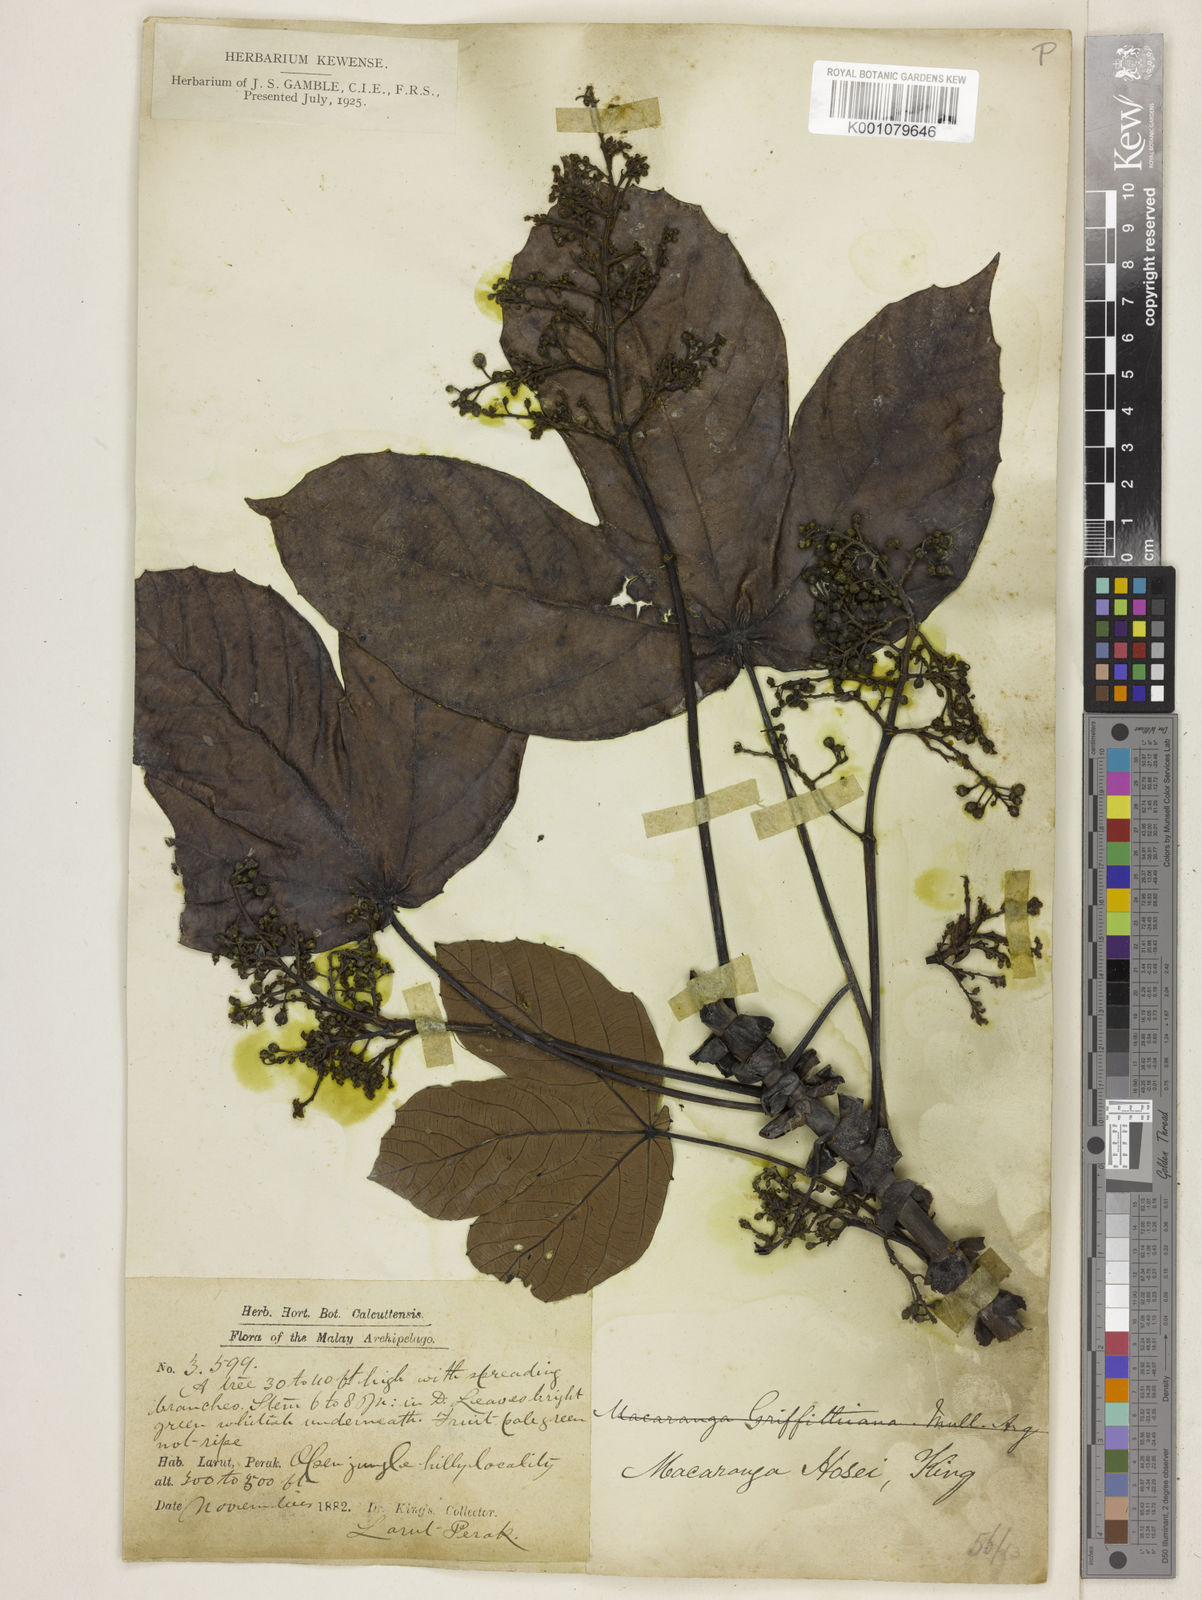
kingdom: Plantae
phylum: Tracheophyta
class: Magnoliopsida
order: Malpighiales
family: Euphorbiaceae
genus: Macaranga
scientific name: Macaranga hosei
